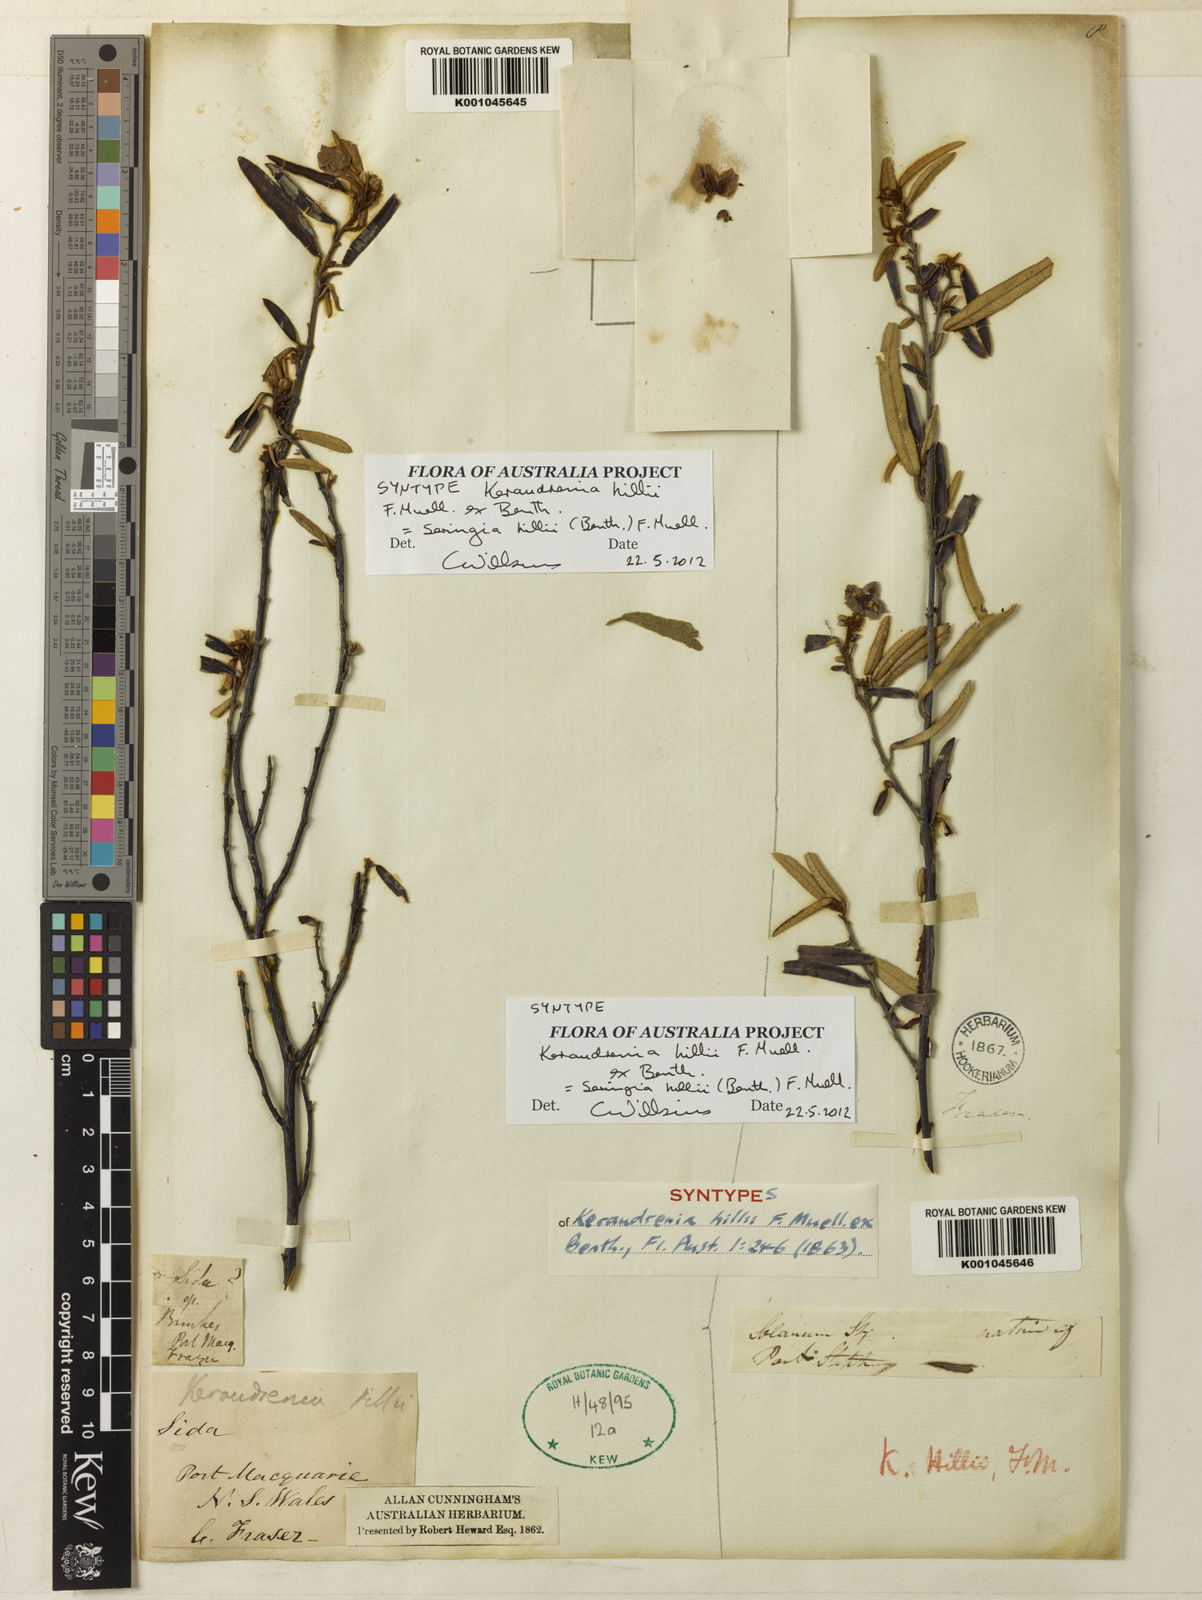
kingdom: Plantae
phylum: Tracheophyta
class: Magnoliopsida
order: Malvales
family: Malvaceae
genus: Seringia
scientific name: Seringia hillii
